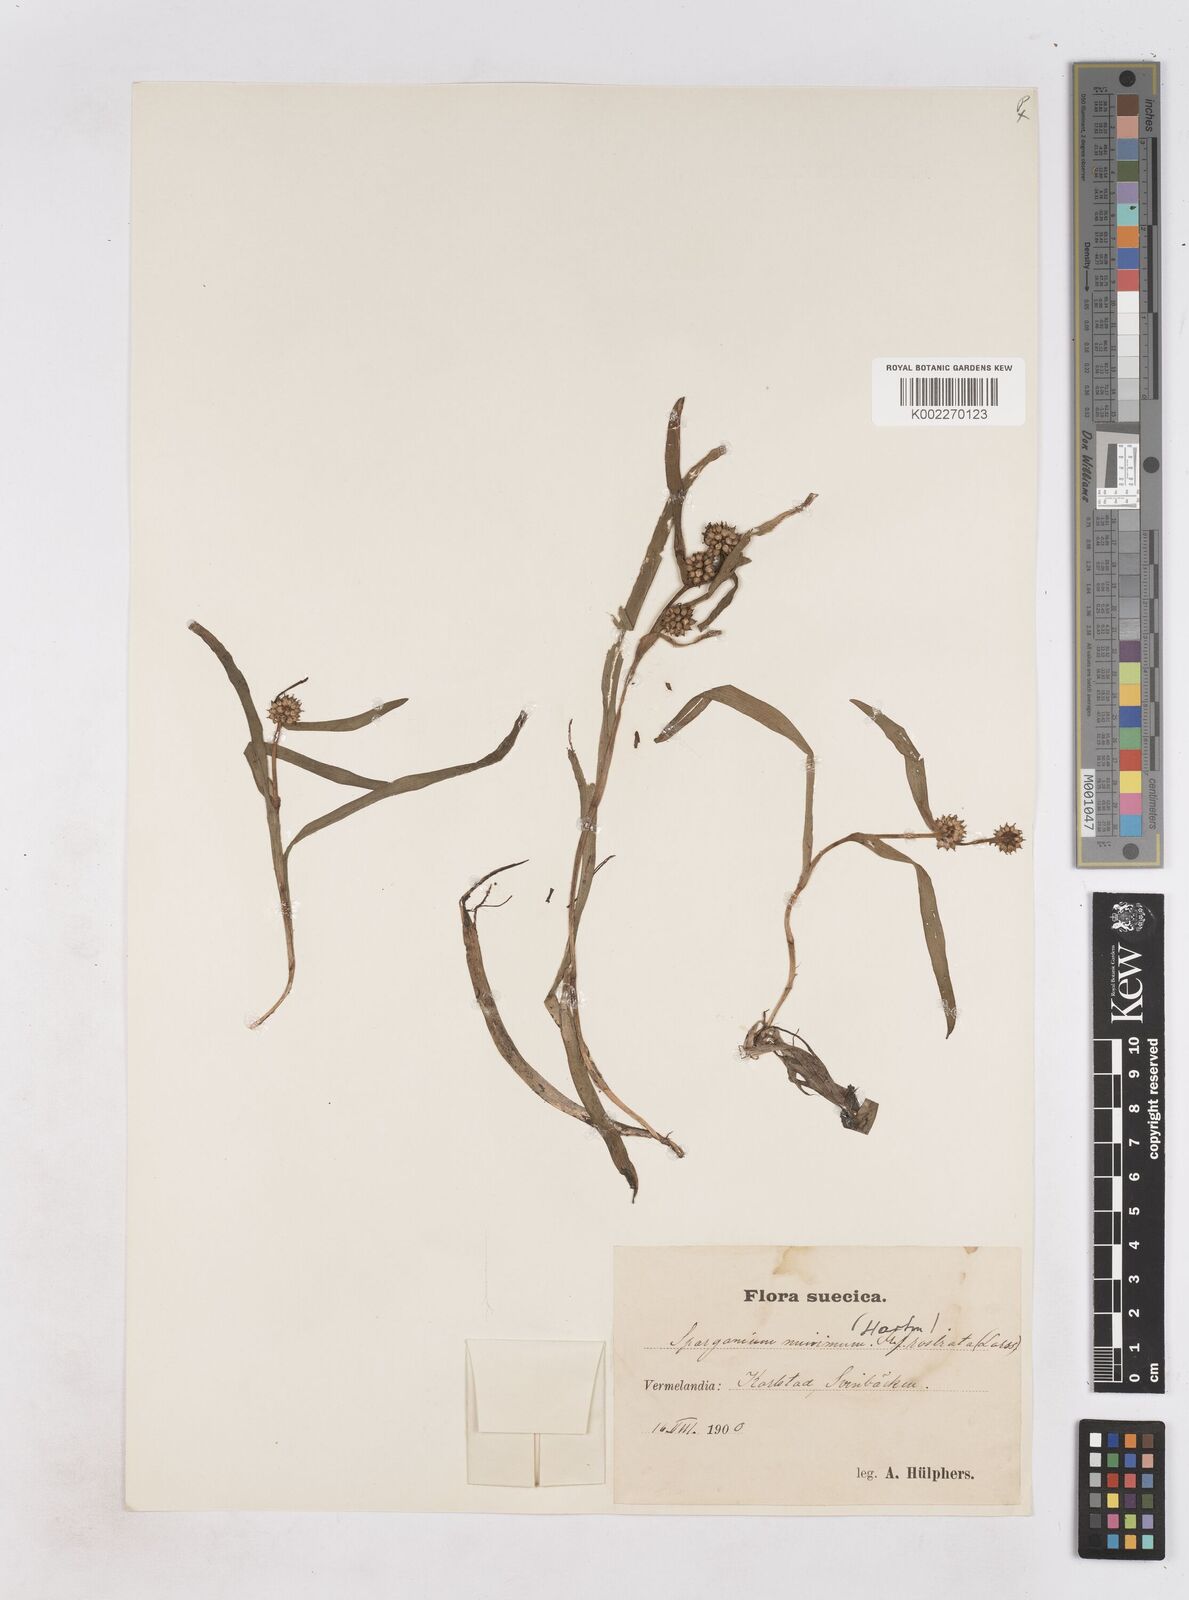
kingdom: Plantae
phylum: Tracheophyta
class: Liliopsida
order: Poales
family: Typhaceae
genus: Sparganium
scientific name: Sparganium natans
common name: Least bur-reed
